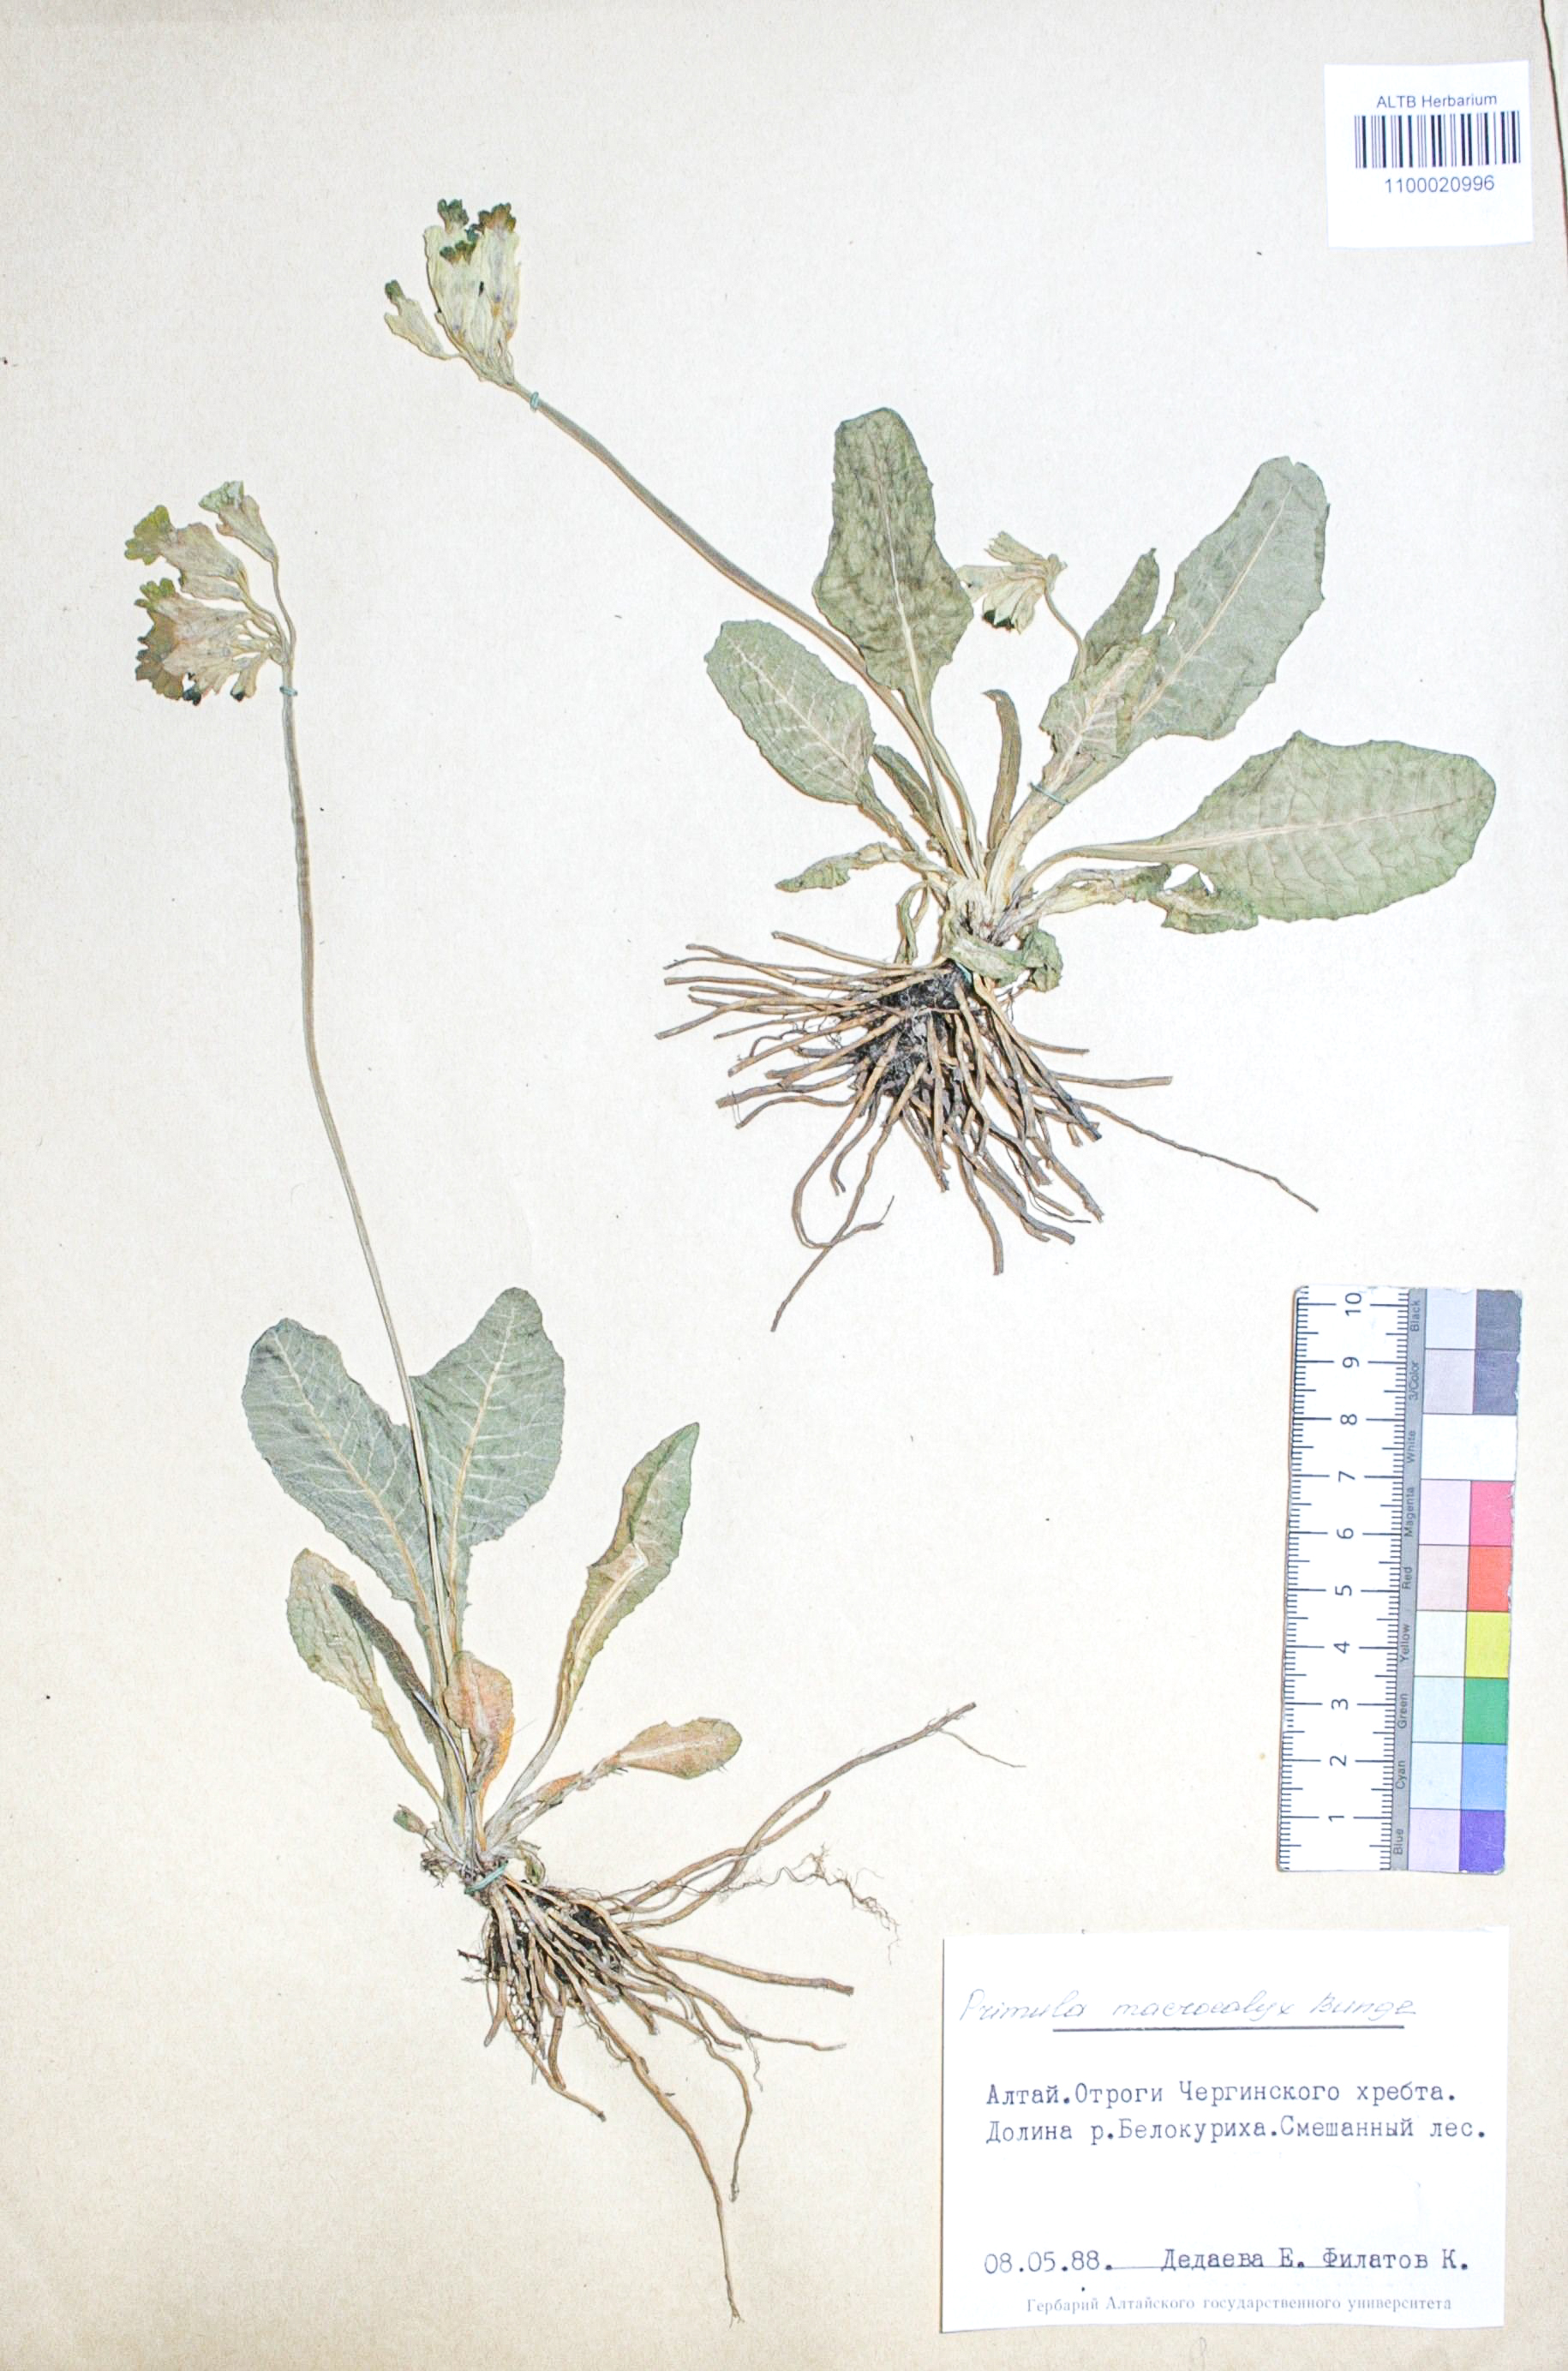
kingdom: Plantae
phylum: Tracheophyta
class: Magnoliopsida
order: Ericales
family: Primulaceae
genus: Primula
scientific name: Primula veris
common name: Cowslip
